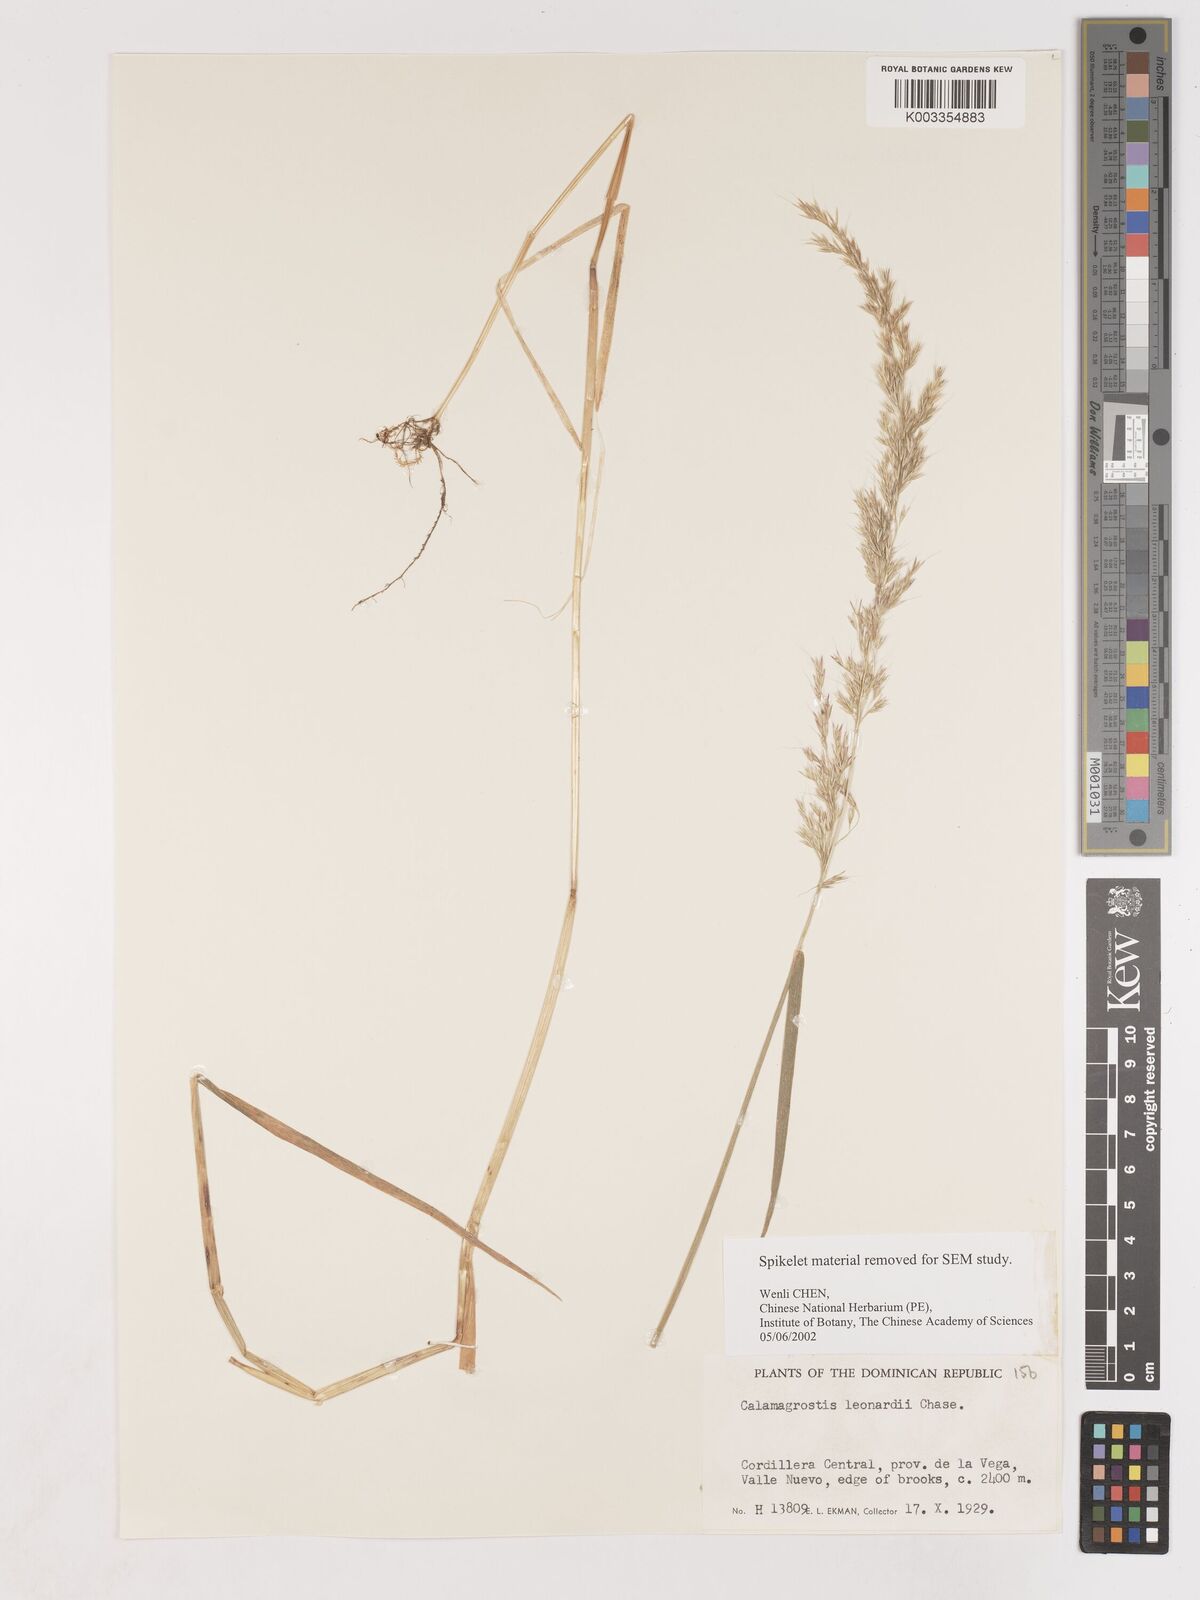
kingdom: Plantae
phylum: Tracheophyta
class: Liliopsida
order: Poales
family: Poaceae
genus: Calamagrostis
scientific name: Calamagrostis
